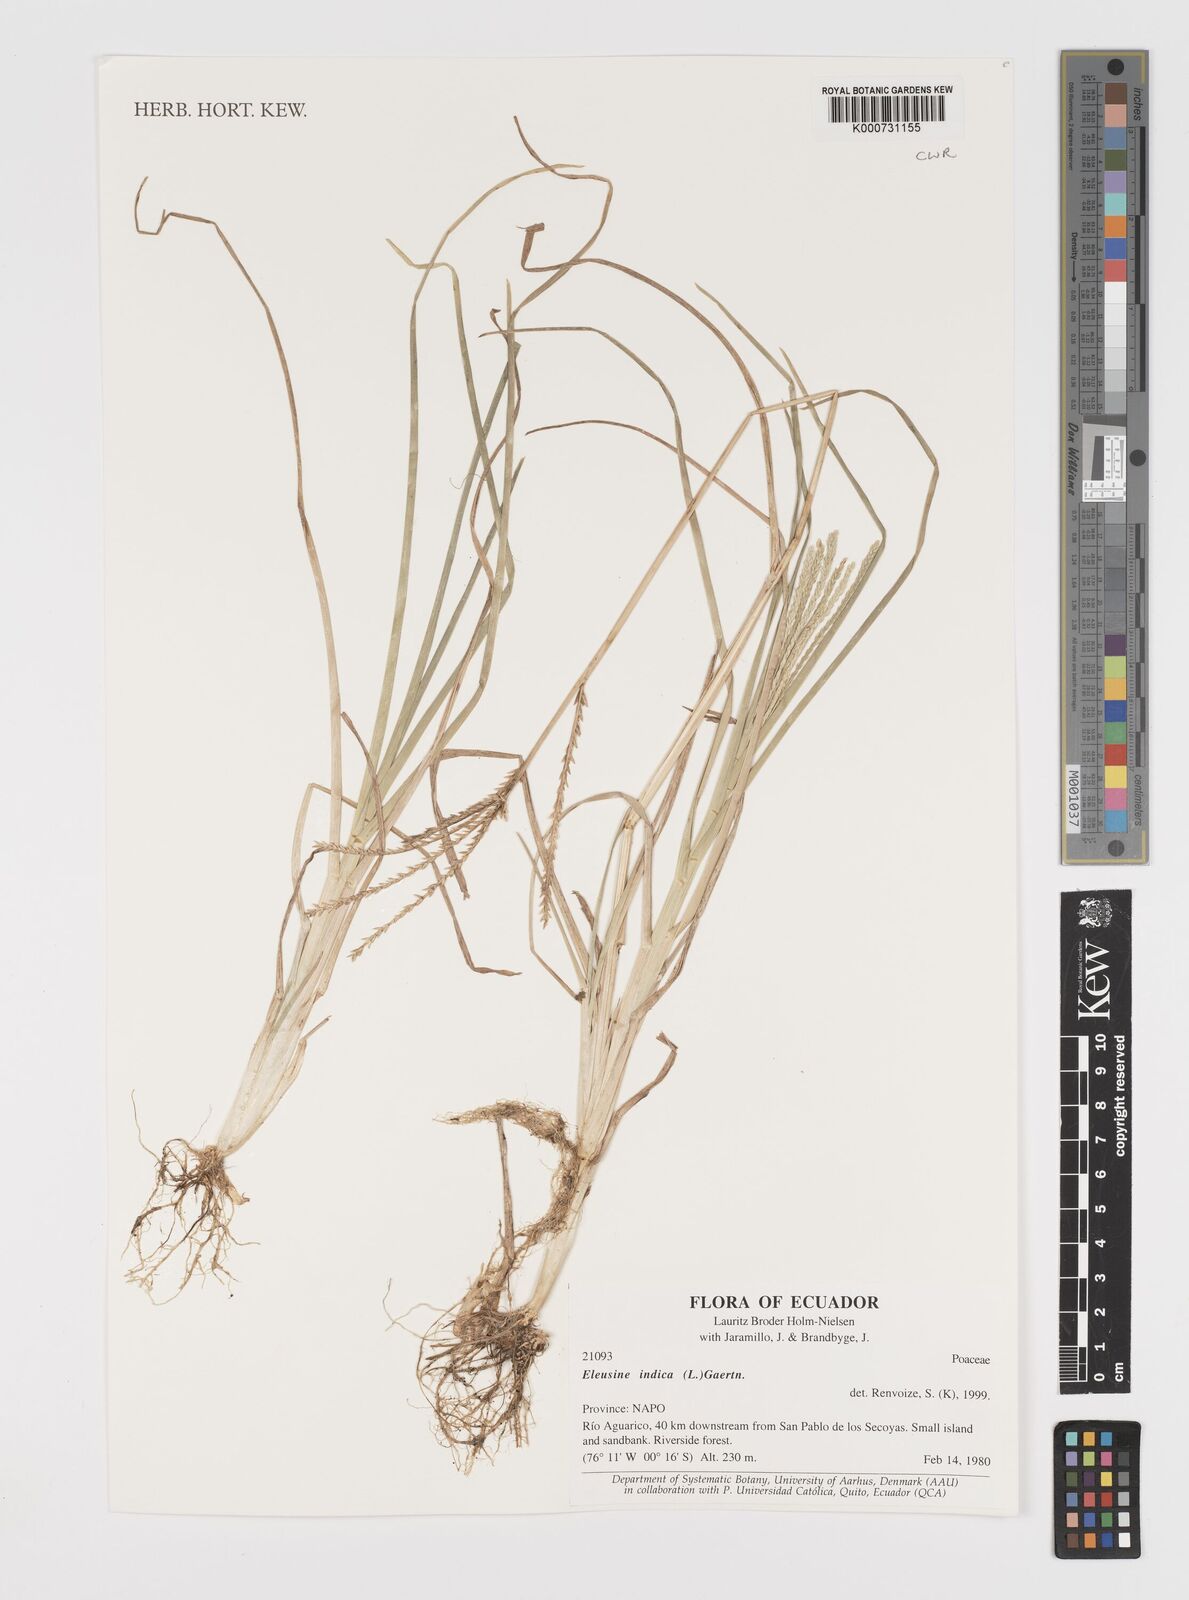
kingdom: Plantae
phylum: Tracheophyta
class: Liliopsida
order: Poales
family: Poaceae
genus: Eleusine
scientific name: Eleusine indica
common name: Yard-grass
